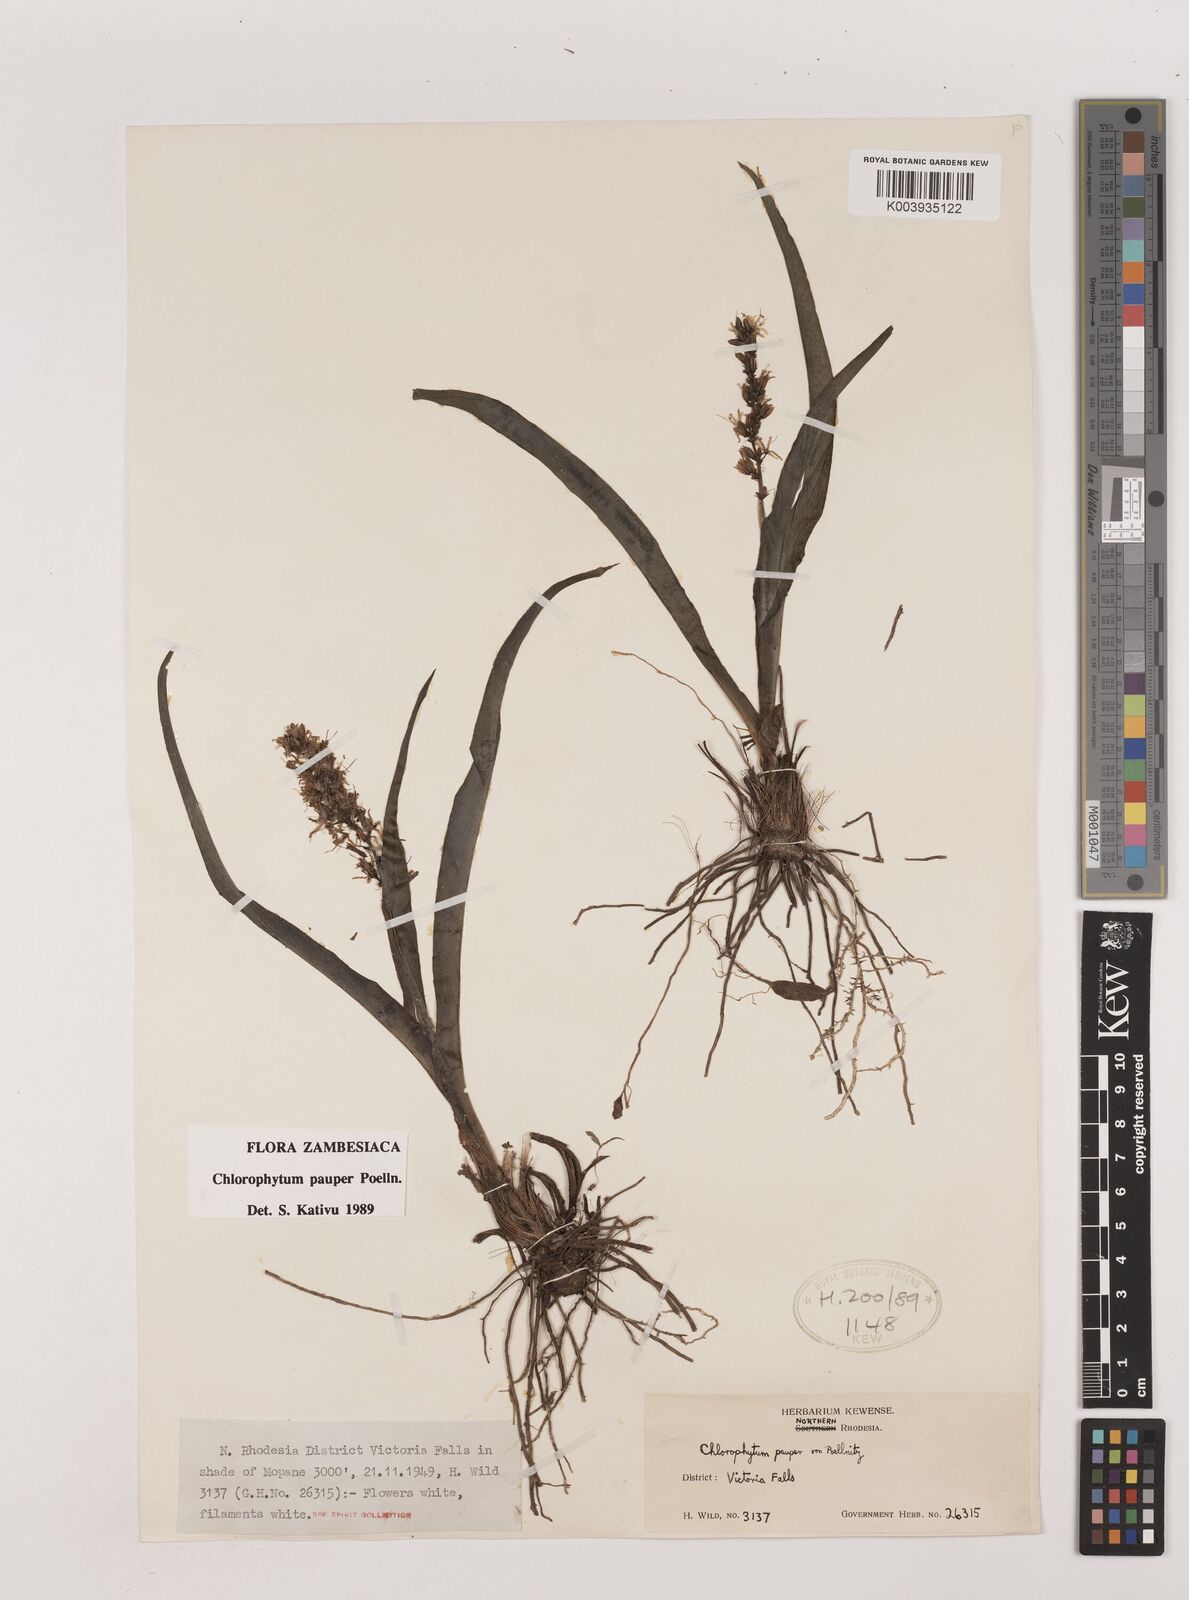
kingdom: Plantae
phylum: Tracheophyta
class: Liliopsida
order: Asparagales
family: Asparagaceae
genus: Chlorophytum
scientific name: Chlorophytum pauper
